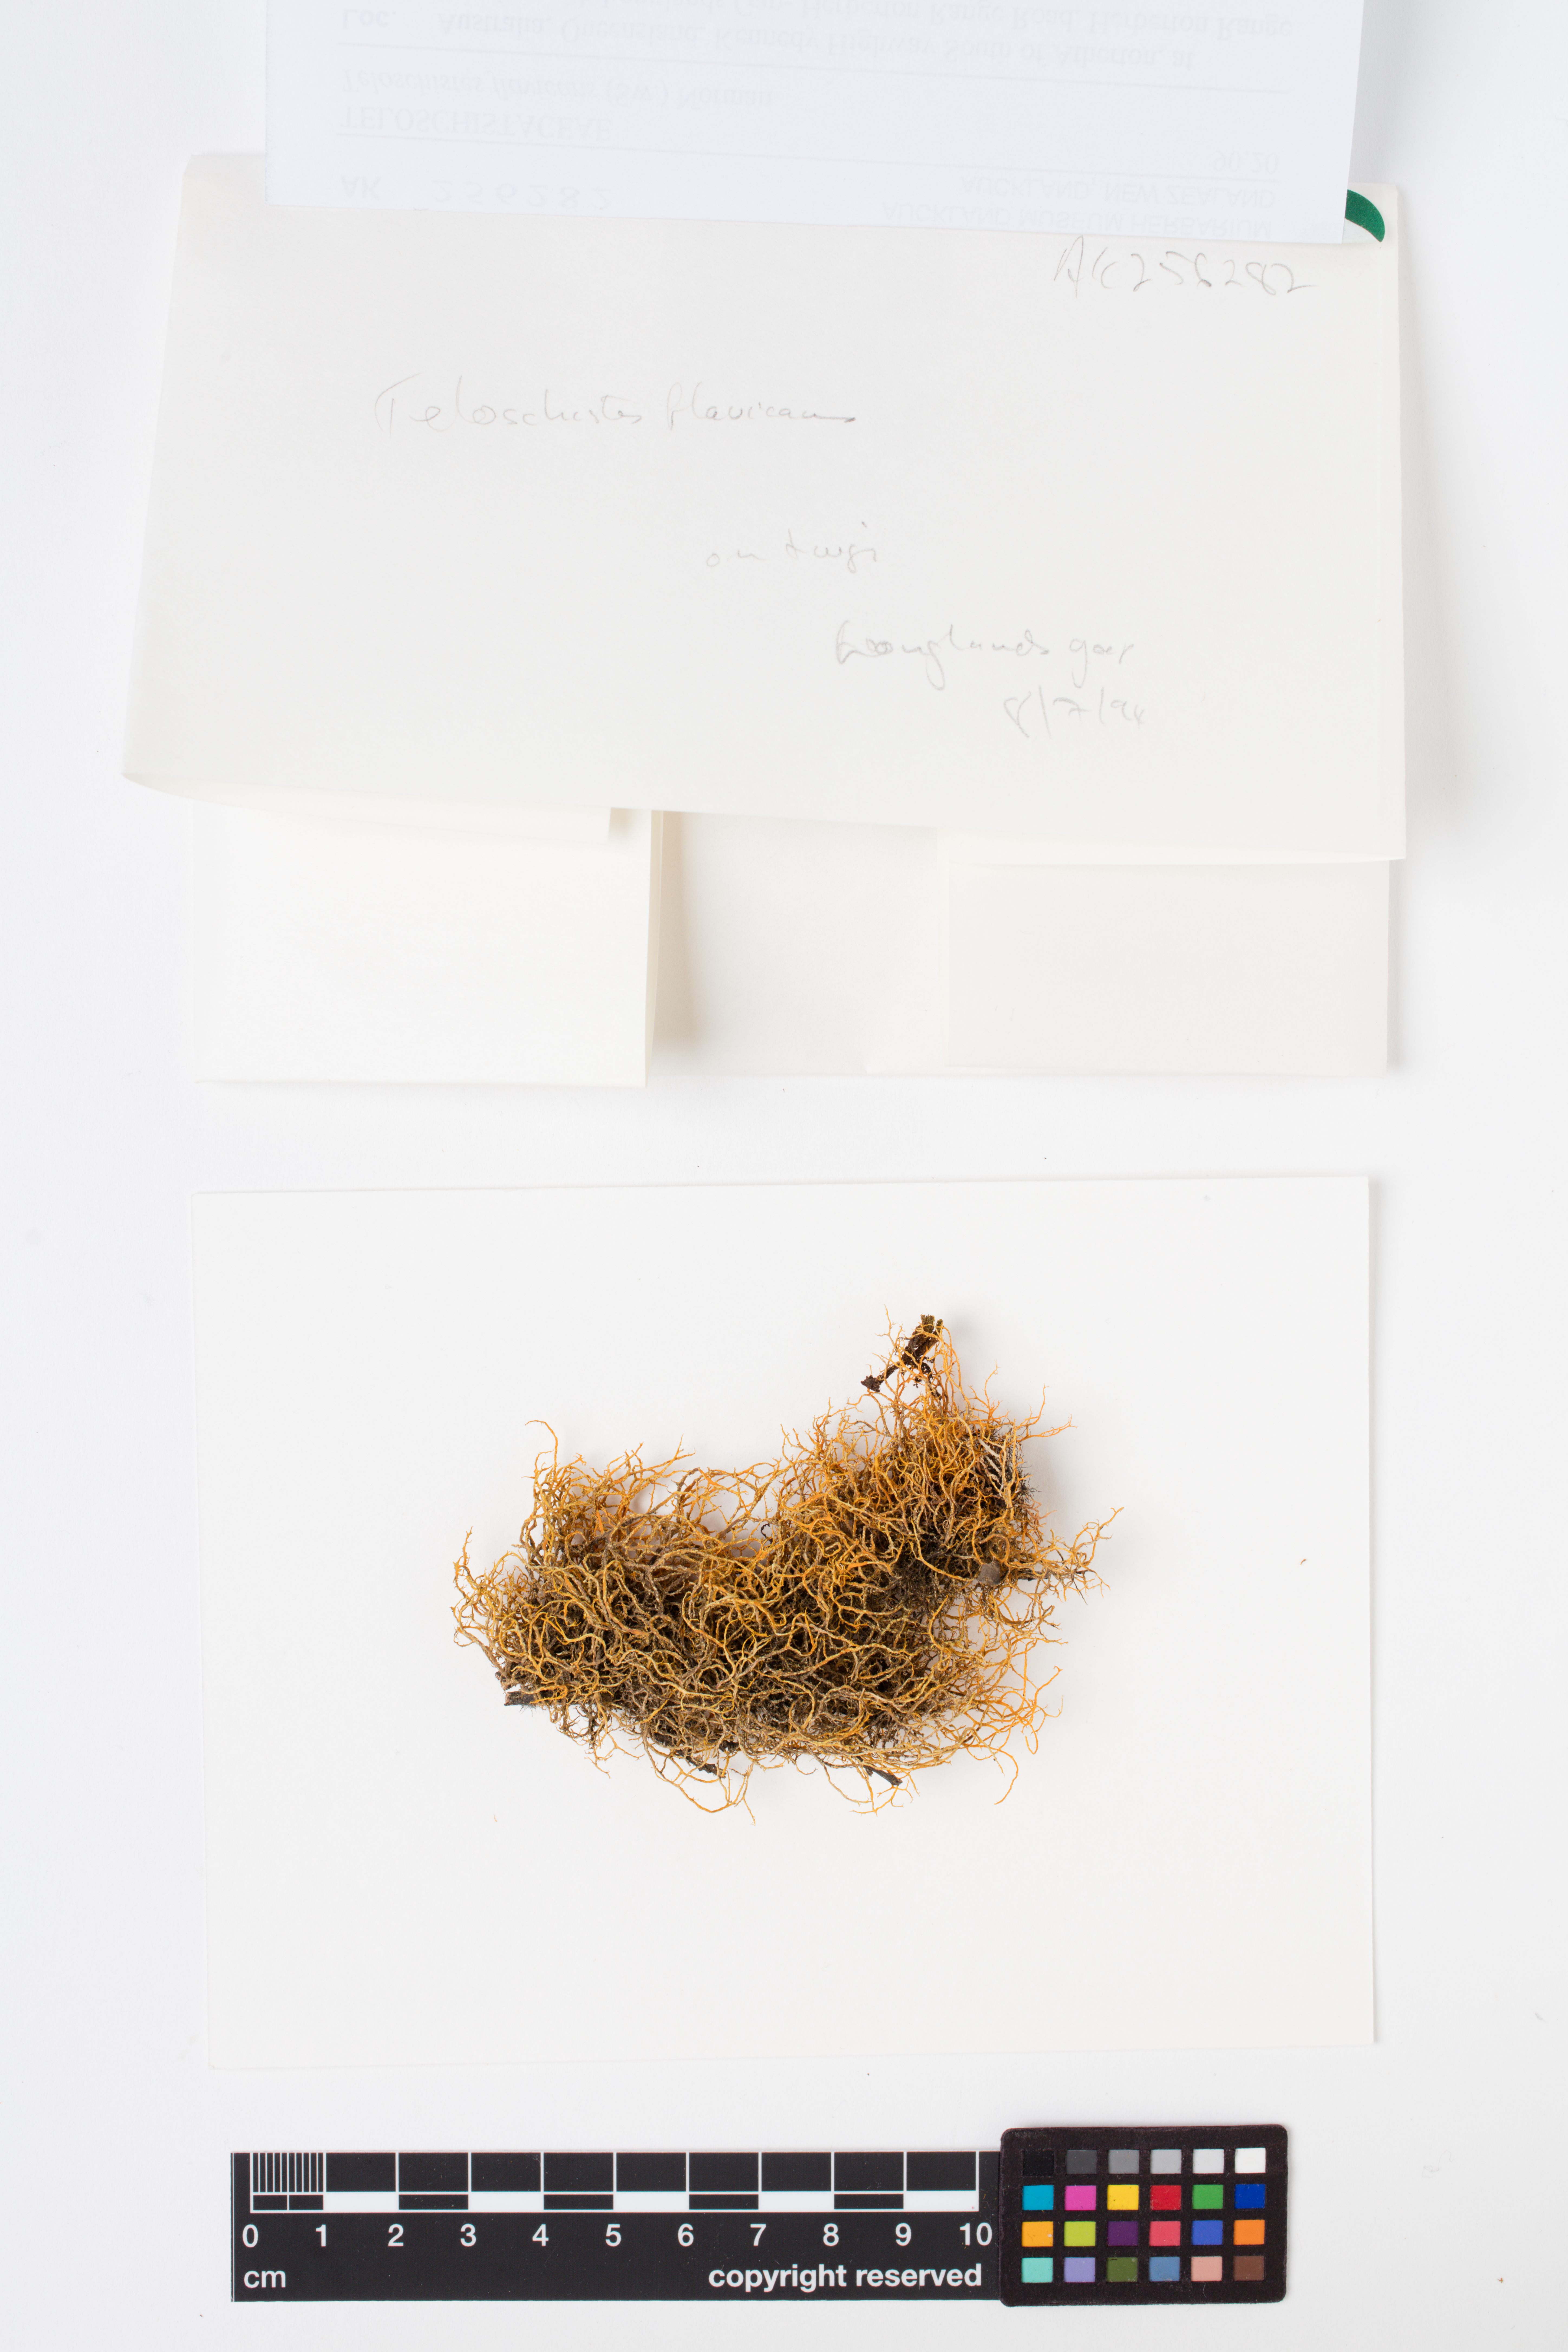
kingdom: Fungi
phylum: Ascomycota
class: Lecanoromycetes
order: Teloschistales
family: Teloschistaceae
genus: Teloschistes
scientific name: Teloschistes flavicans
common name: Golden hair-lichen
